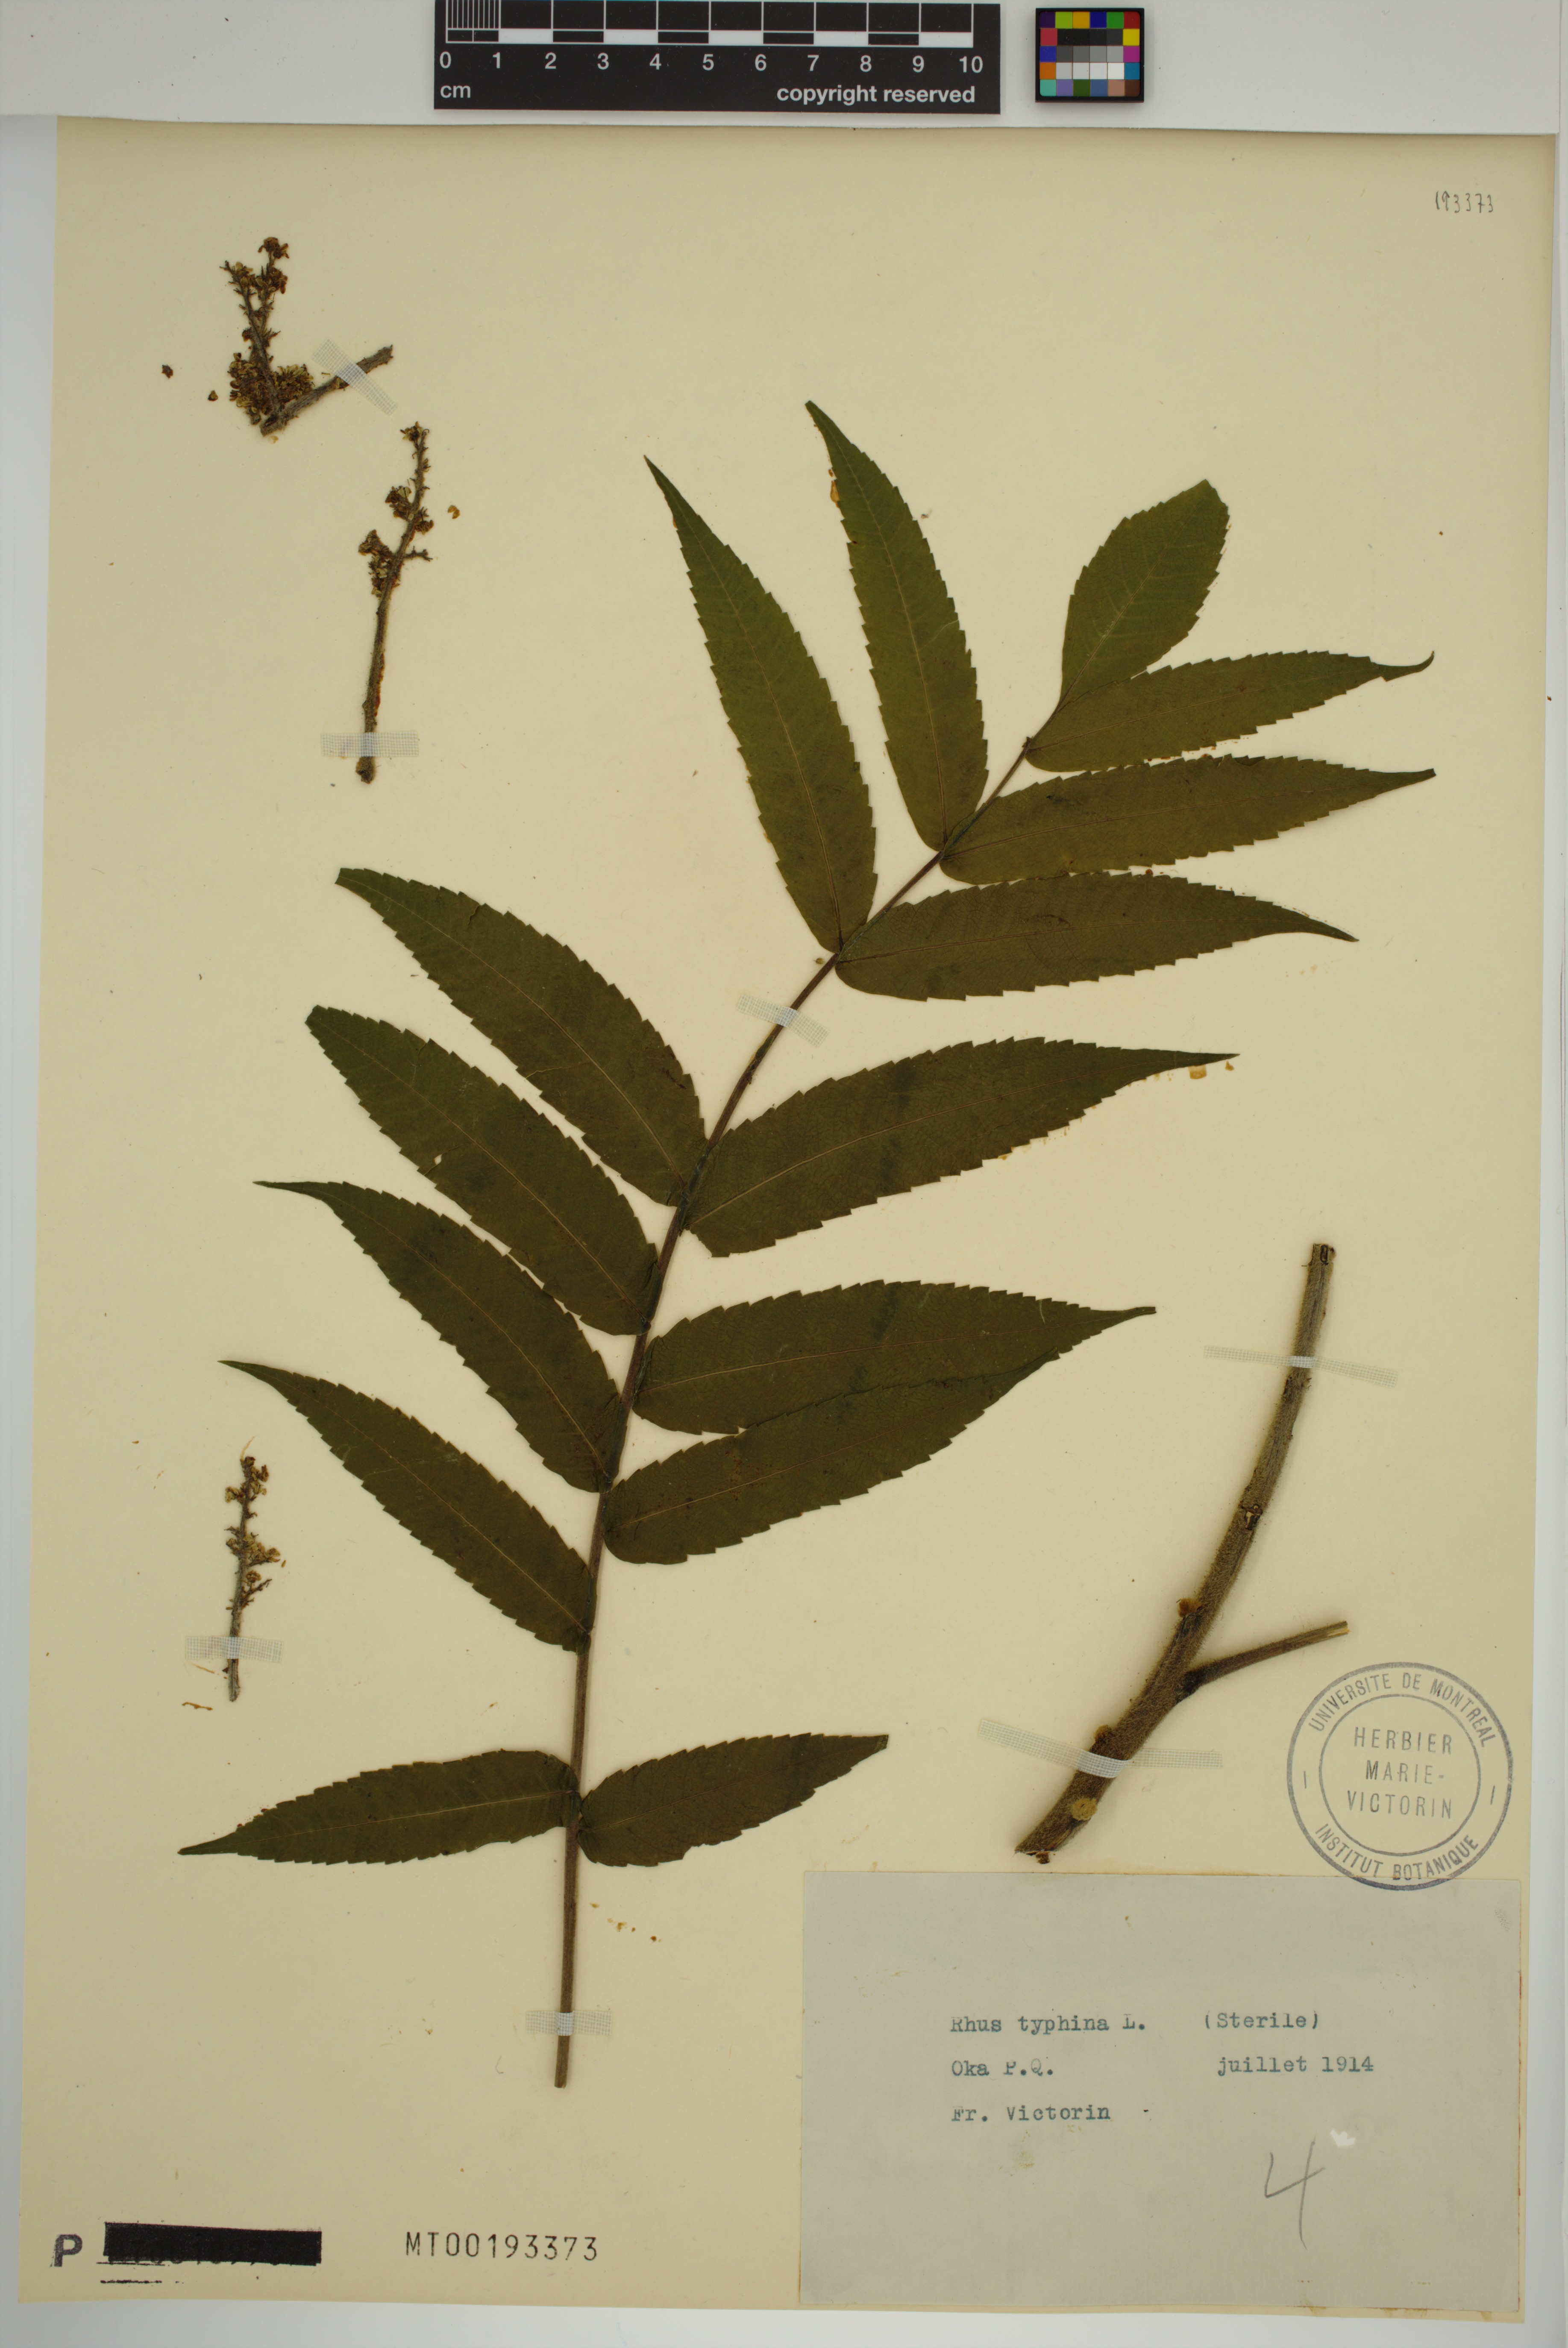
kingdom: Plantae
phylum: Tracheophyta
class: Magnoliopsida
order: Sapindales
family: Anacardiaceae
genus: Rhus
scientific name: Rhus typhina
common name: Staghorn sumac
